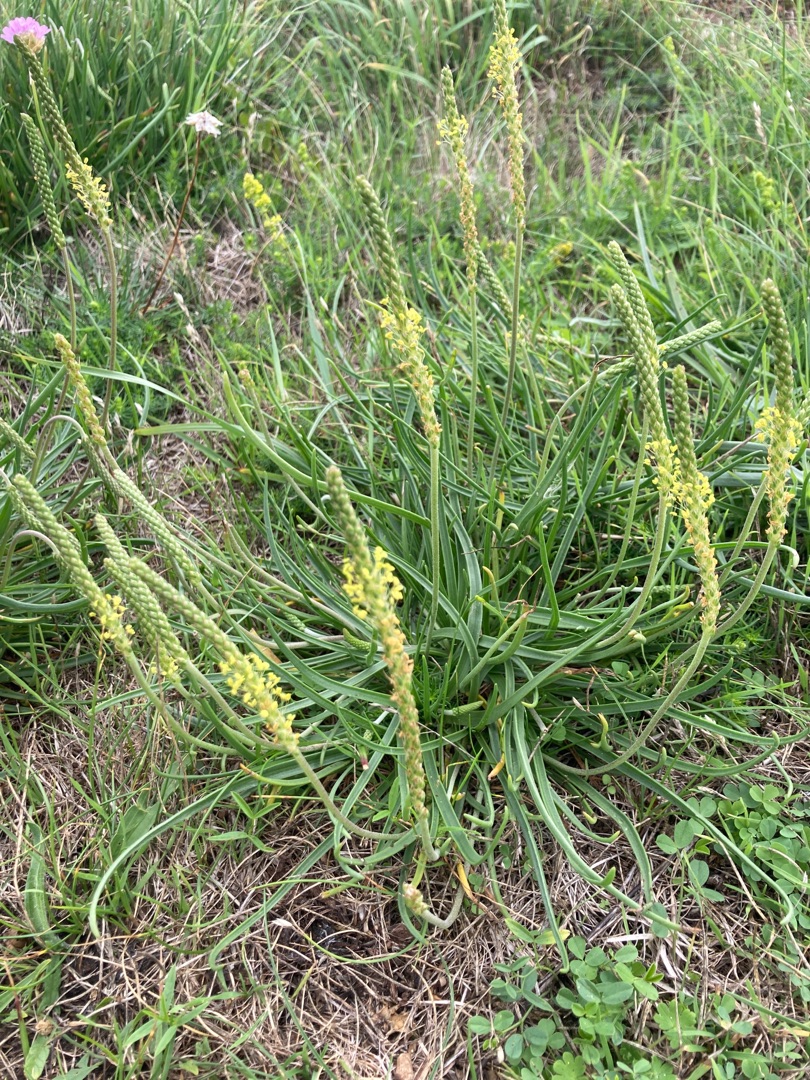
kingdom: Plantae
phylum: Tracheophyta
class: Magnoliopsida
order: Lamiales
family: Plantaginaceae
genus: Plantago
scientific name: Plantago maritima
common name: Strand-vejbred
